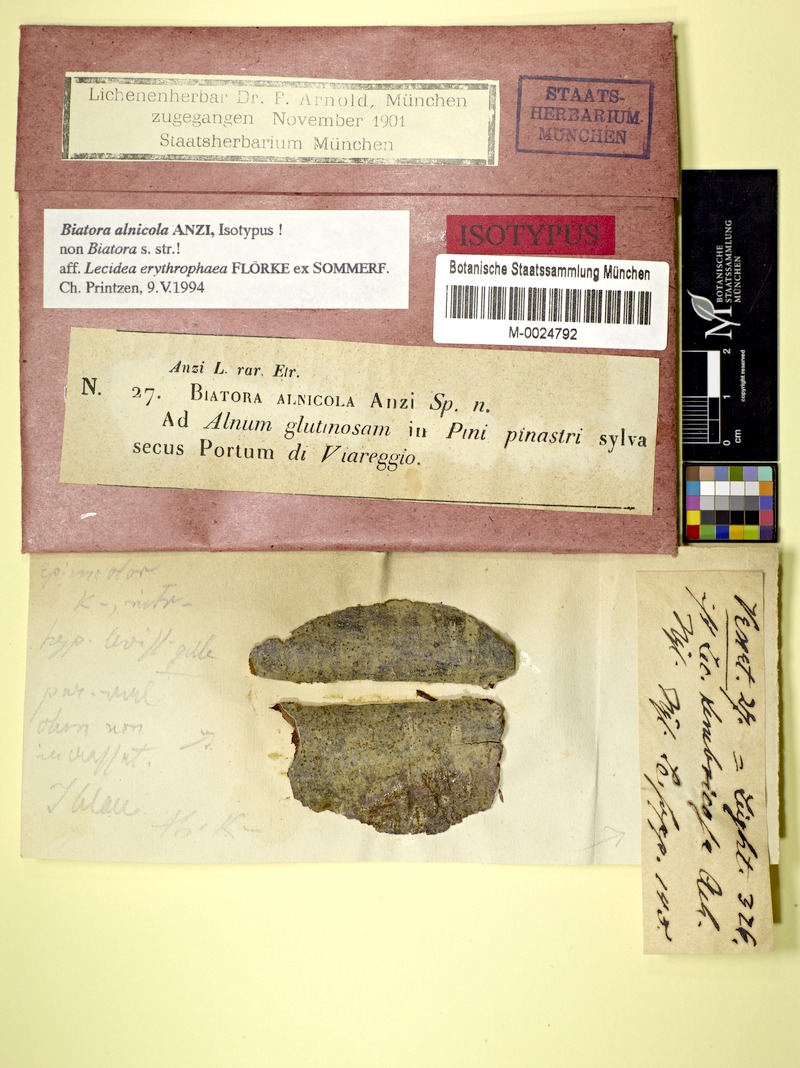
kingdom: Fungi
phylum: Ascomycota
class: Lecanoromycetes
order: Lecanorales
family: Ramalinaceae
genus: Biatora
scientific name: Biatora alnicola
